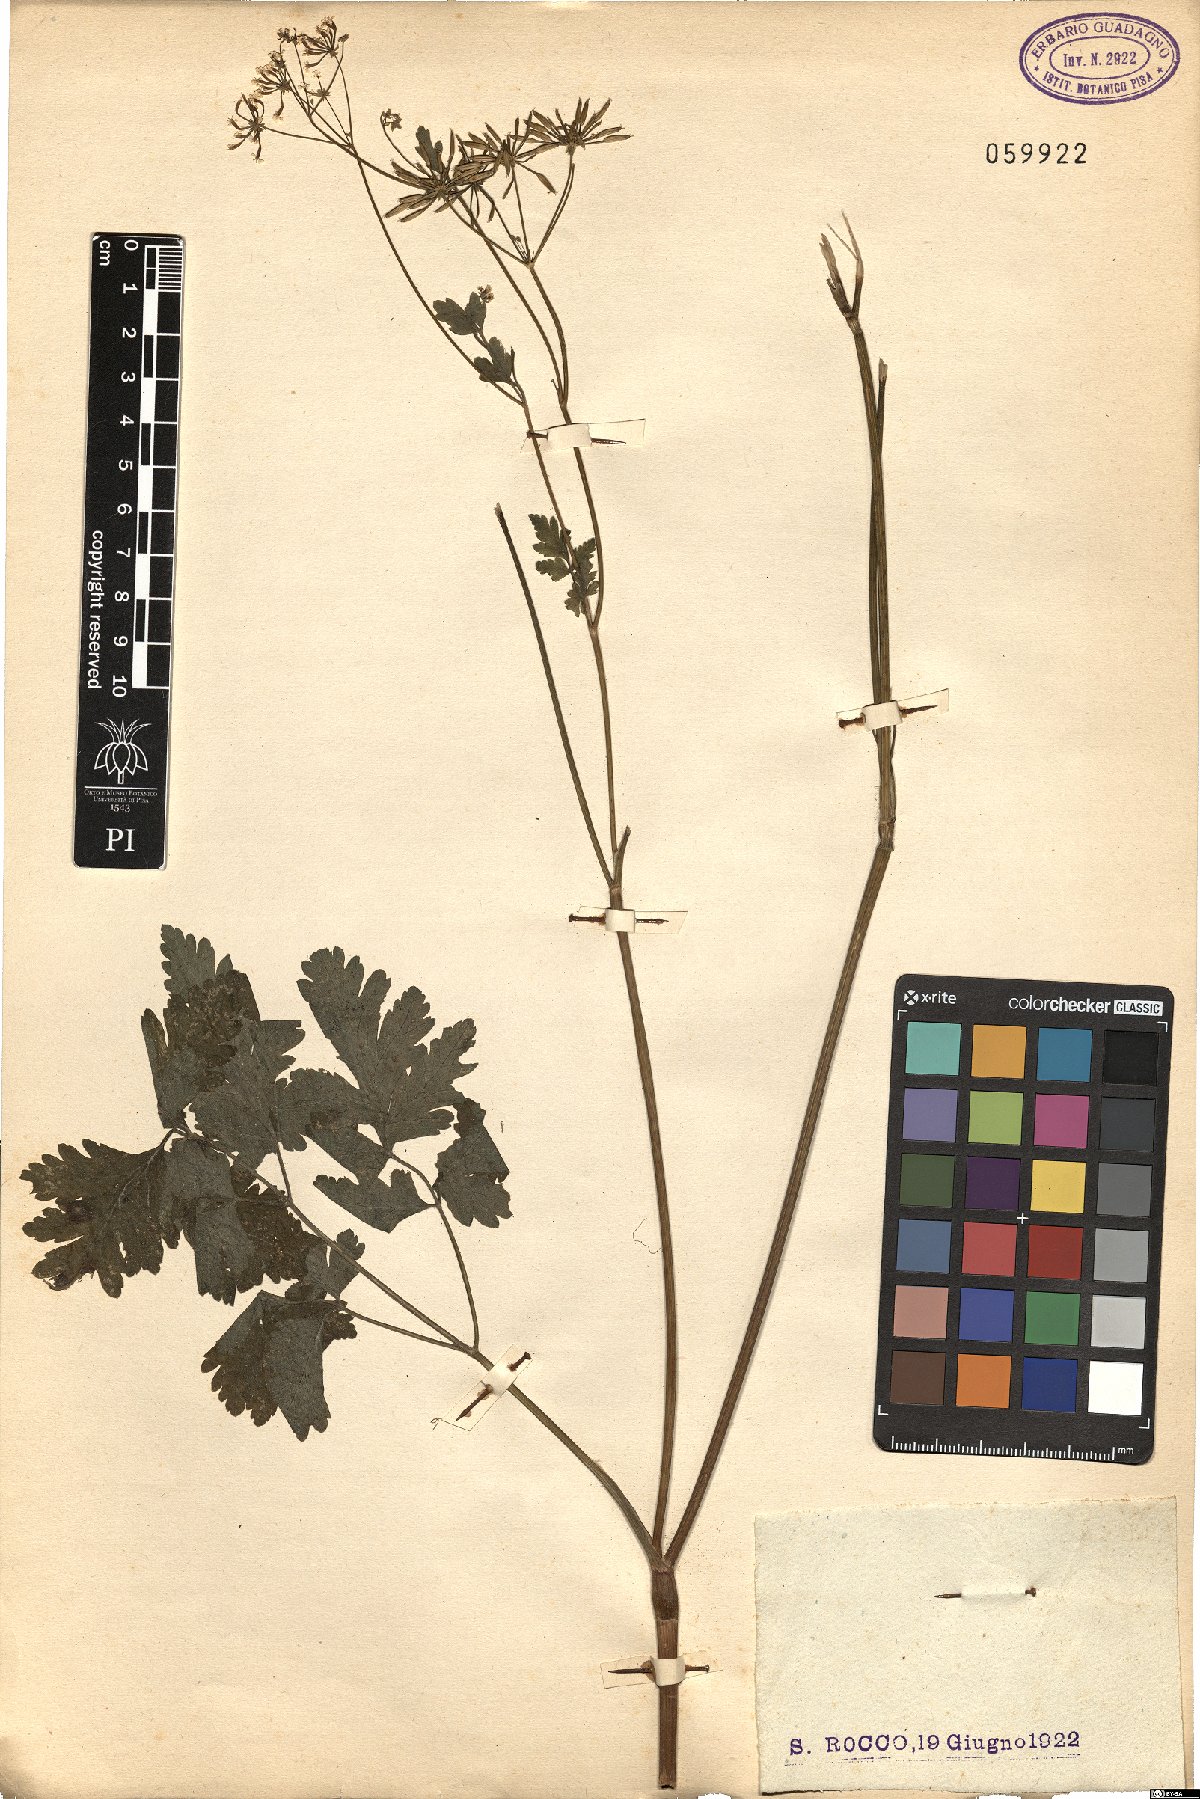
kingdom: Plantae
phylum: Tracheophyta
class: Magnoliopsida
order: Apiales
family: Apiaceae
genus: Chaerophyllum
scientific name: Chaerophyllum temulum
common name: Rough chervil
